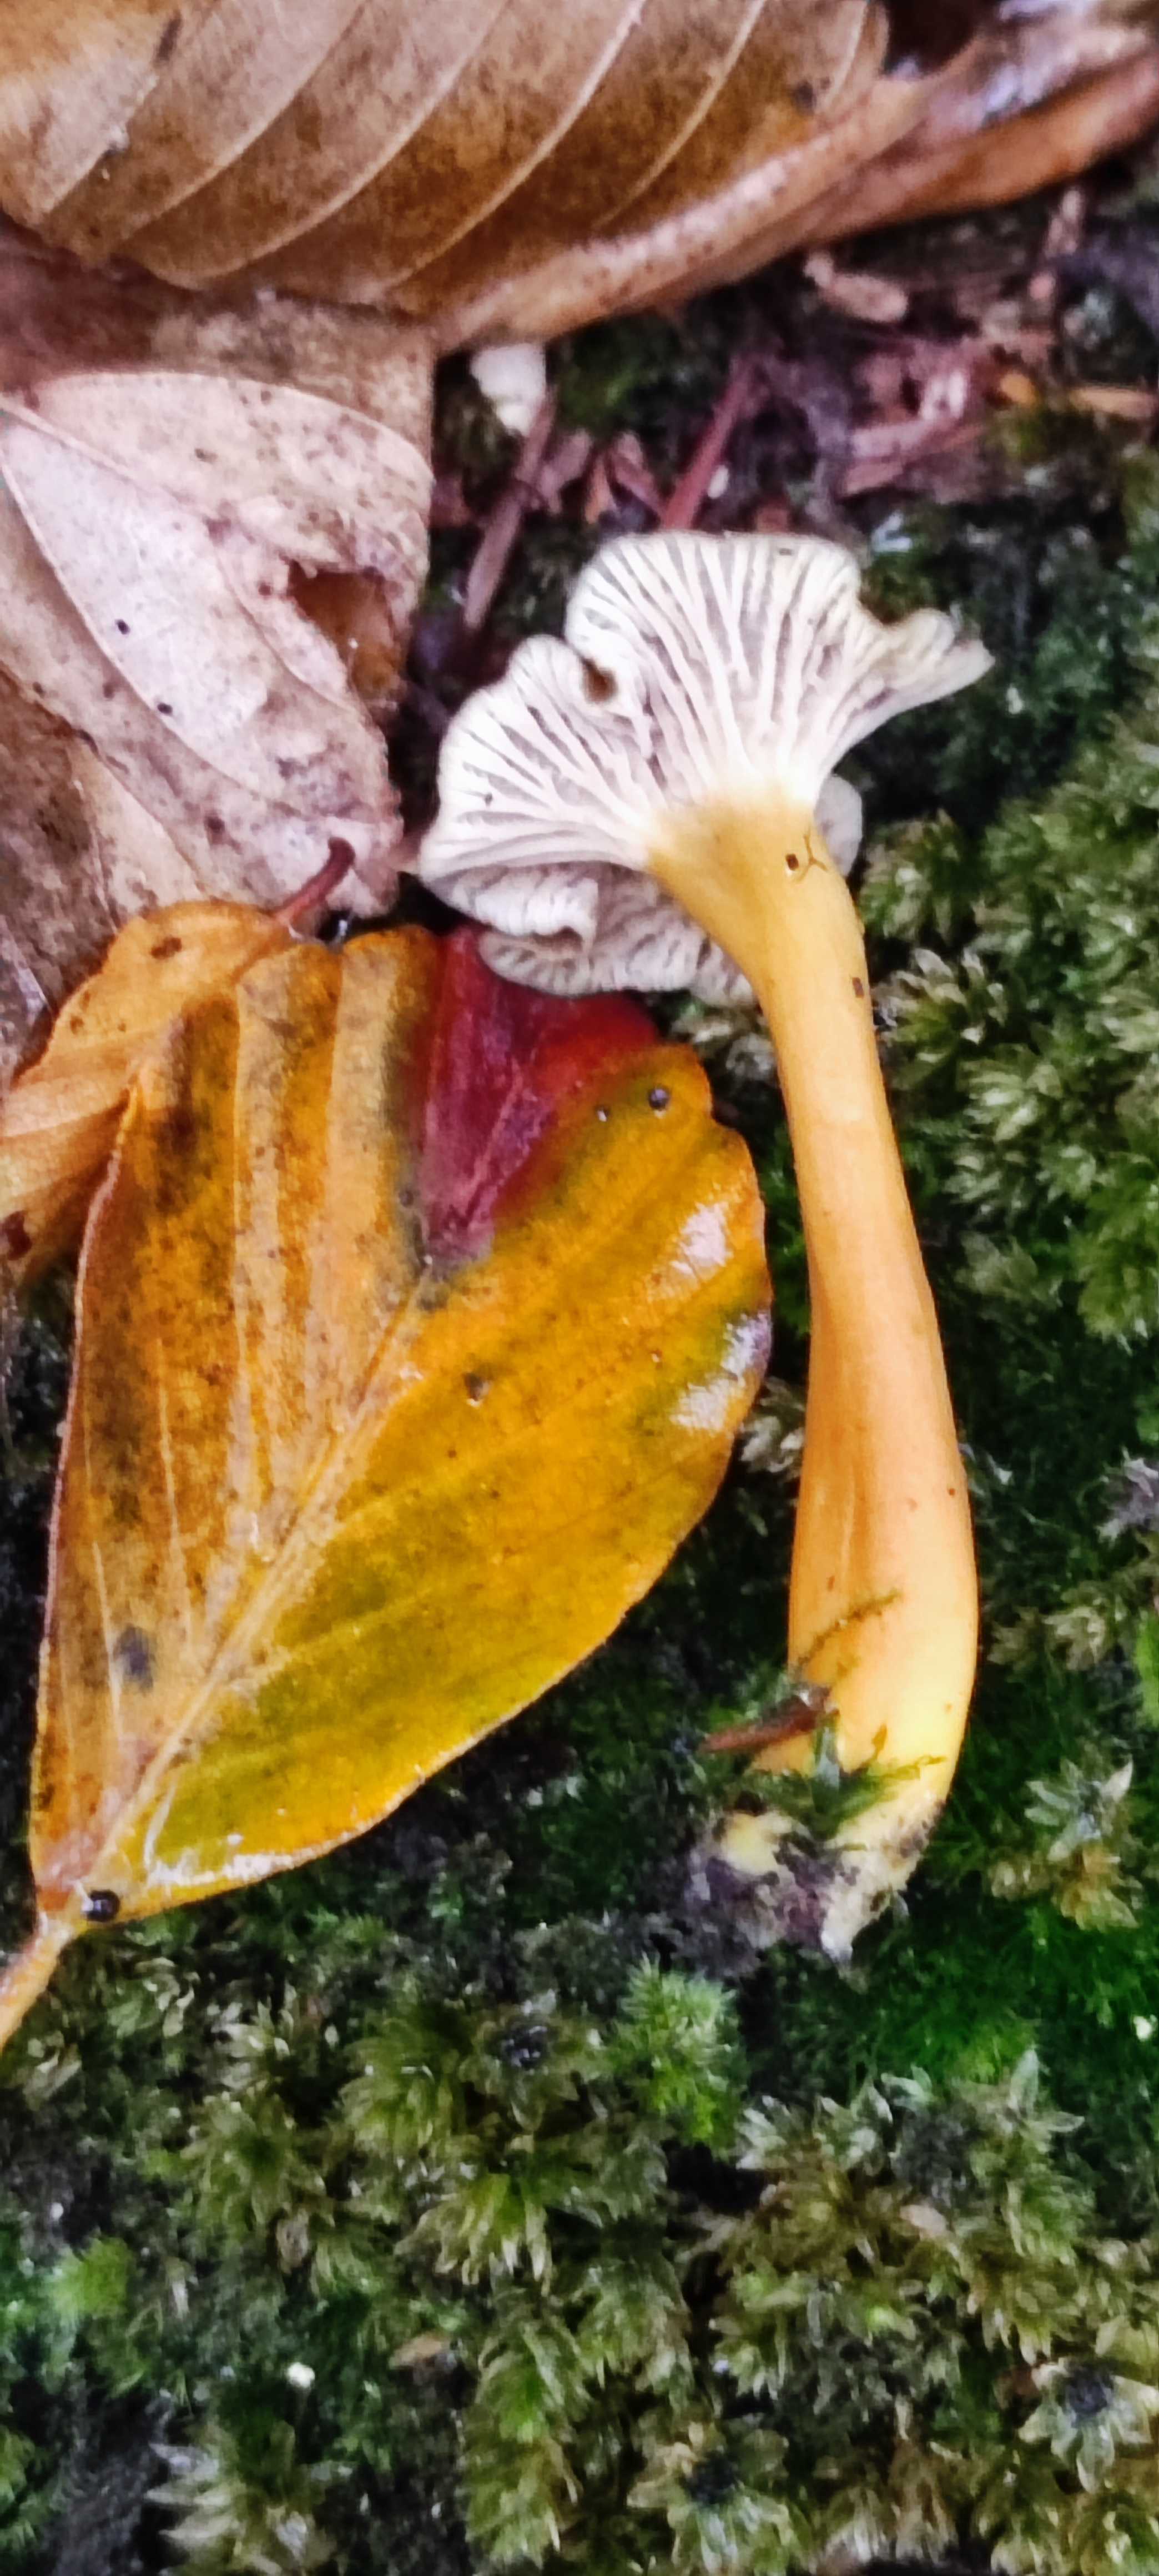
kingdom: Fungi
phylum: Basidiomycota
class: Agaricomycetes
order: Cantharellales
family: Hydnaceae
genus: Craterellus
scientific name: Craterellus tubaeformis
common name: tragt-kantarel
